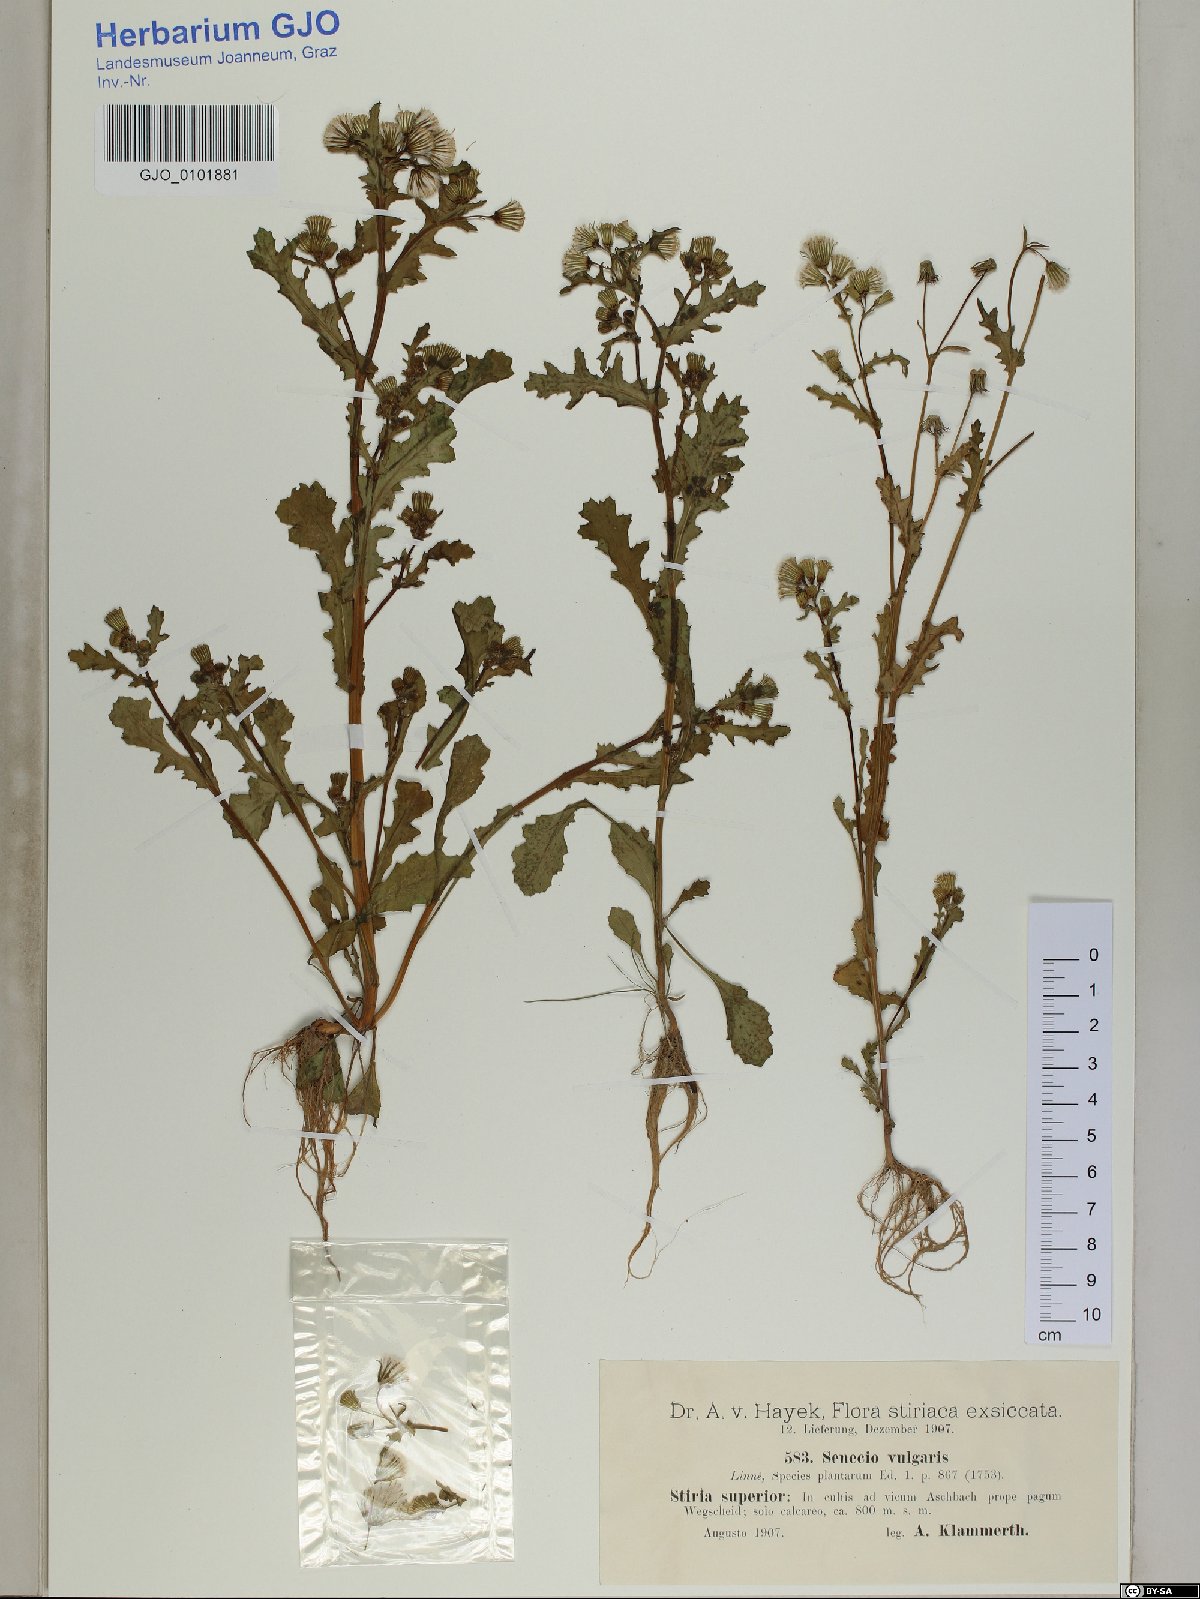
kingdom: Plantae
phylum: Tracheophyta
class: Magnoliopsida
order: Asterales
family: Asteraceae
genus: Senecio
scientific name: Senecio vulgaris
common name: Old-man-in-the-spring
